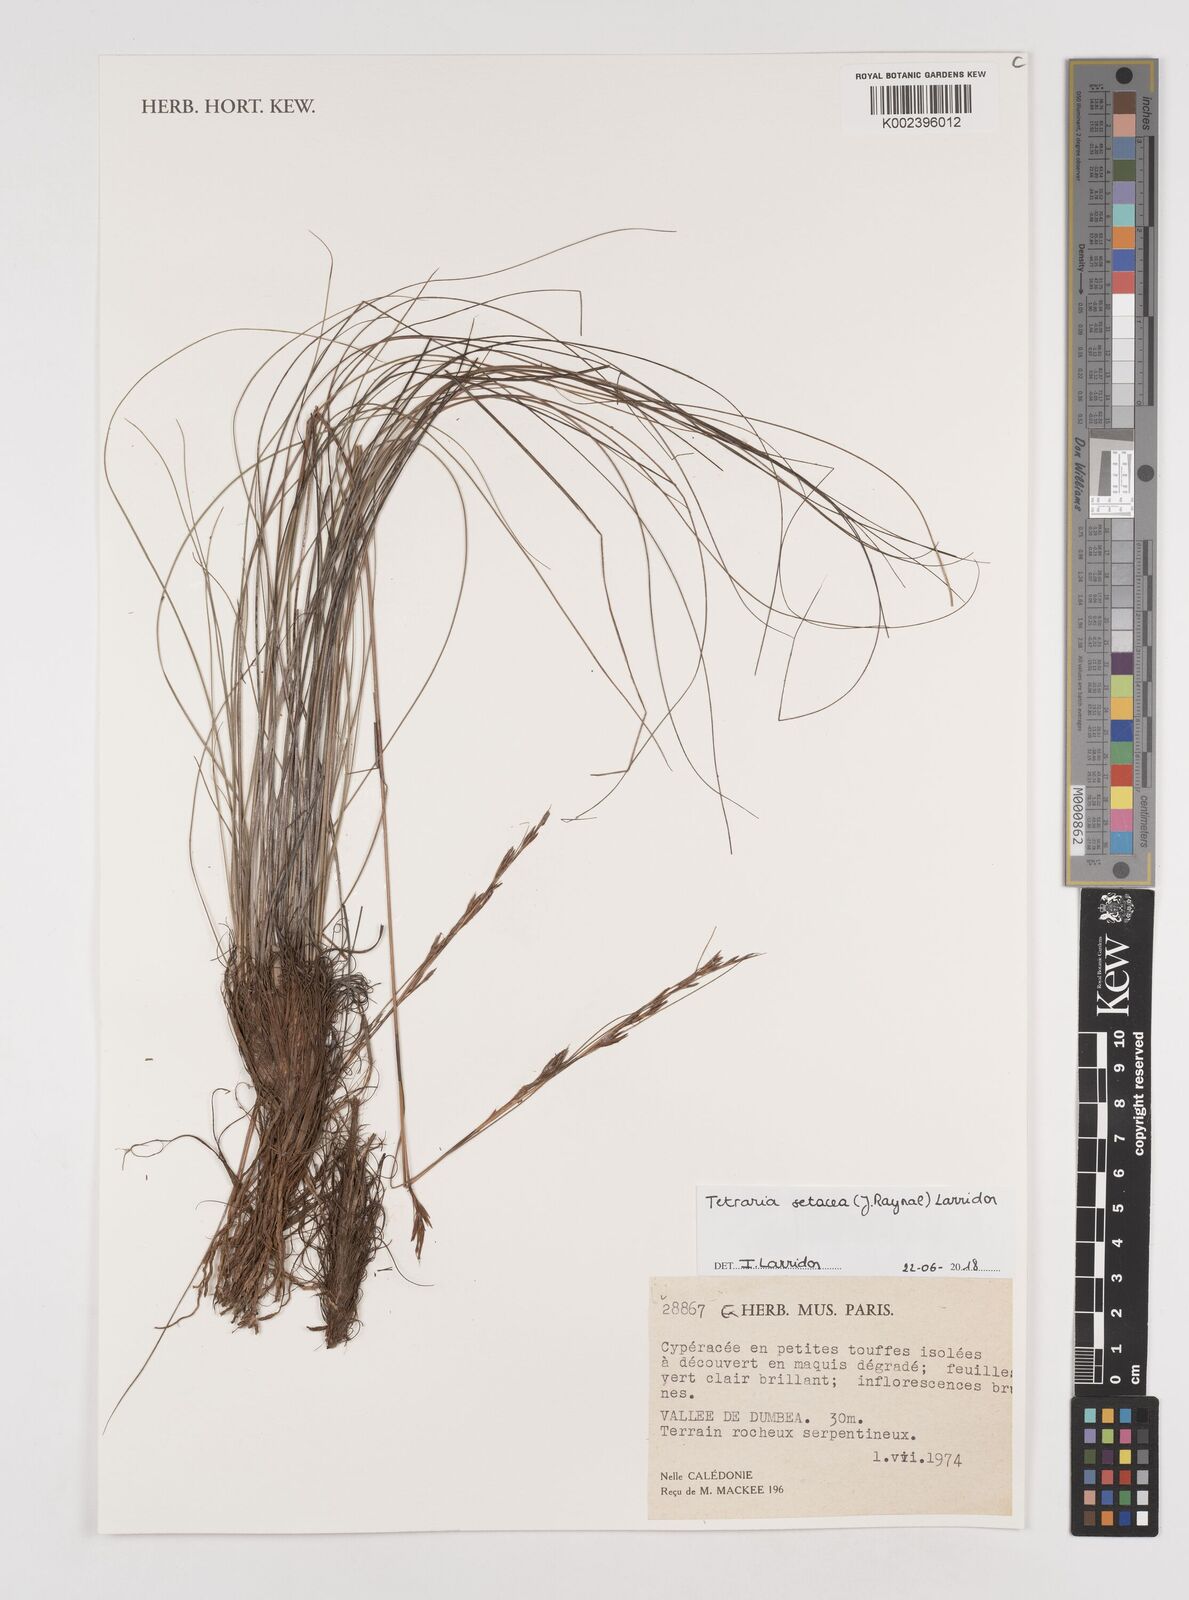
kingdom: Plantae
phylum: Tracheophyta
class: Liliopsida
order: Poales
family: Cyperaceae
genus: Tetraria
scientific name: Tetraria setacea
